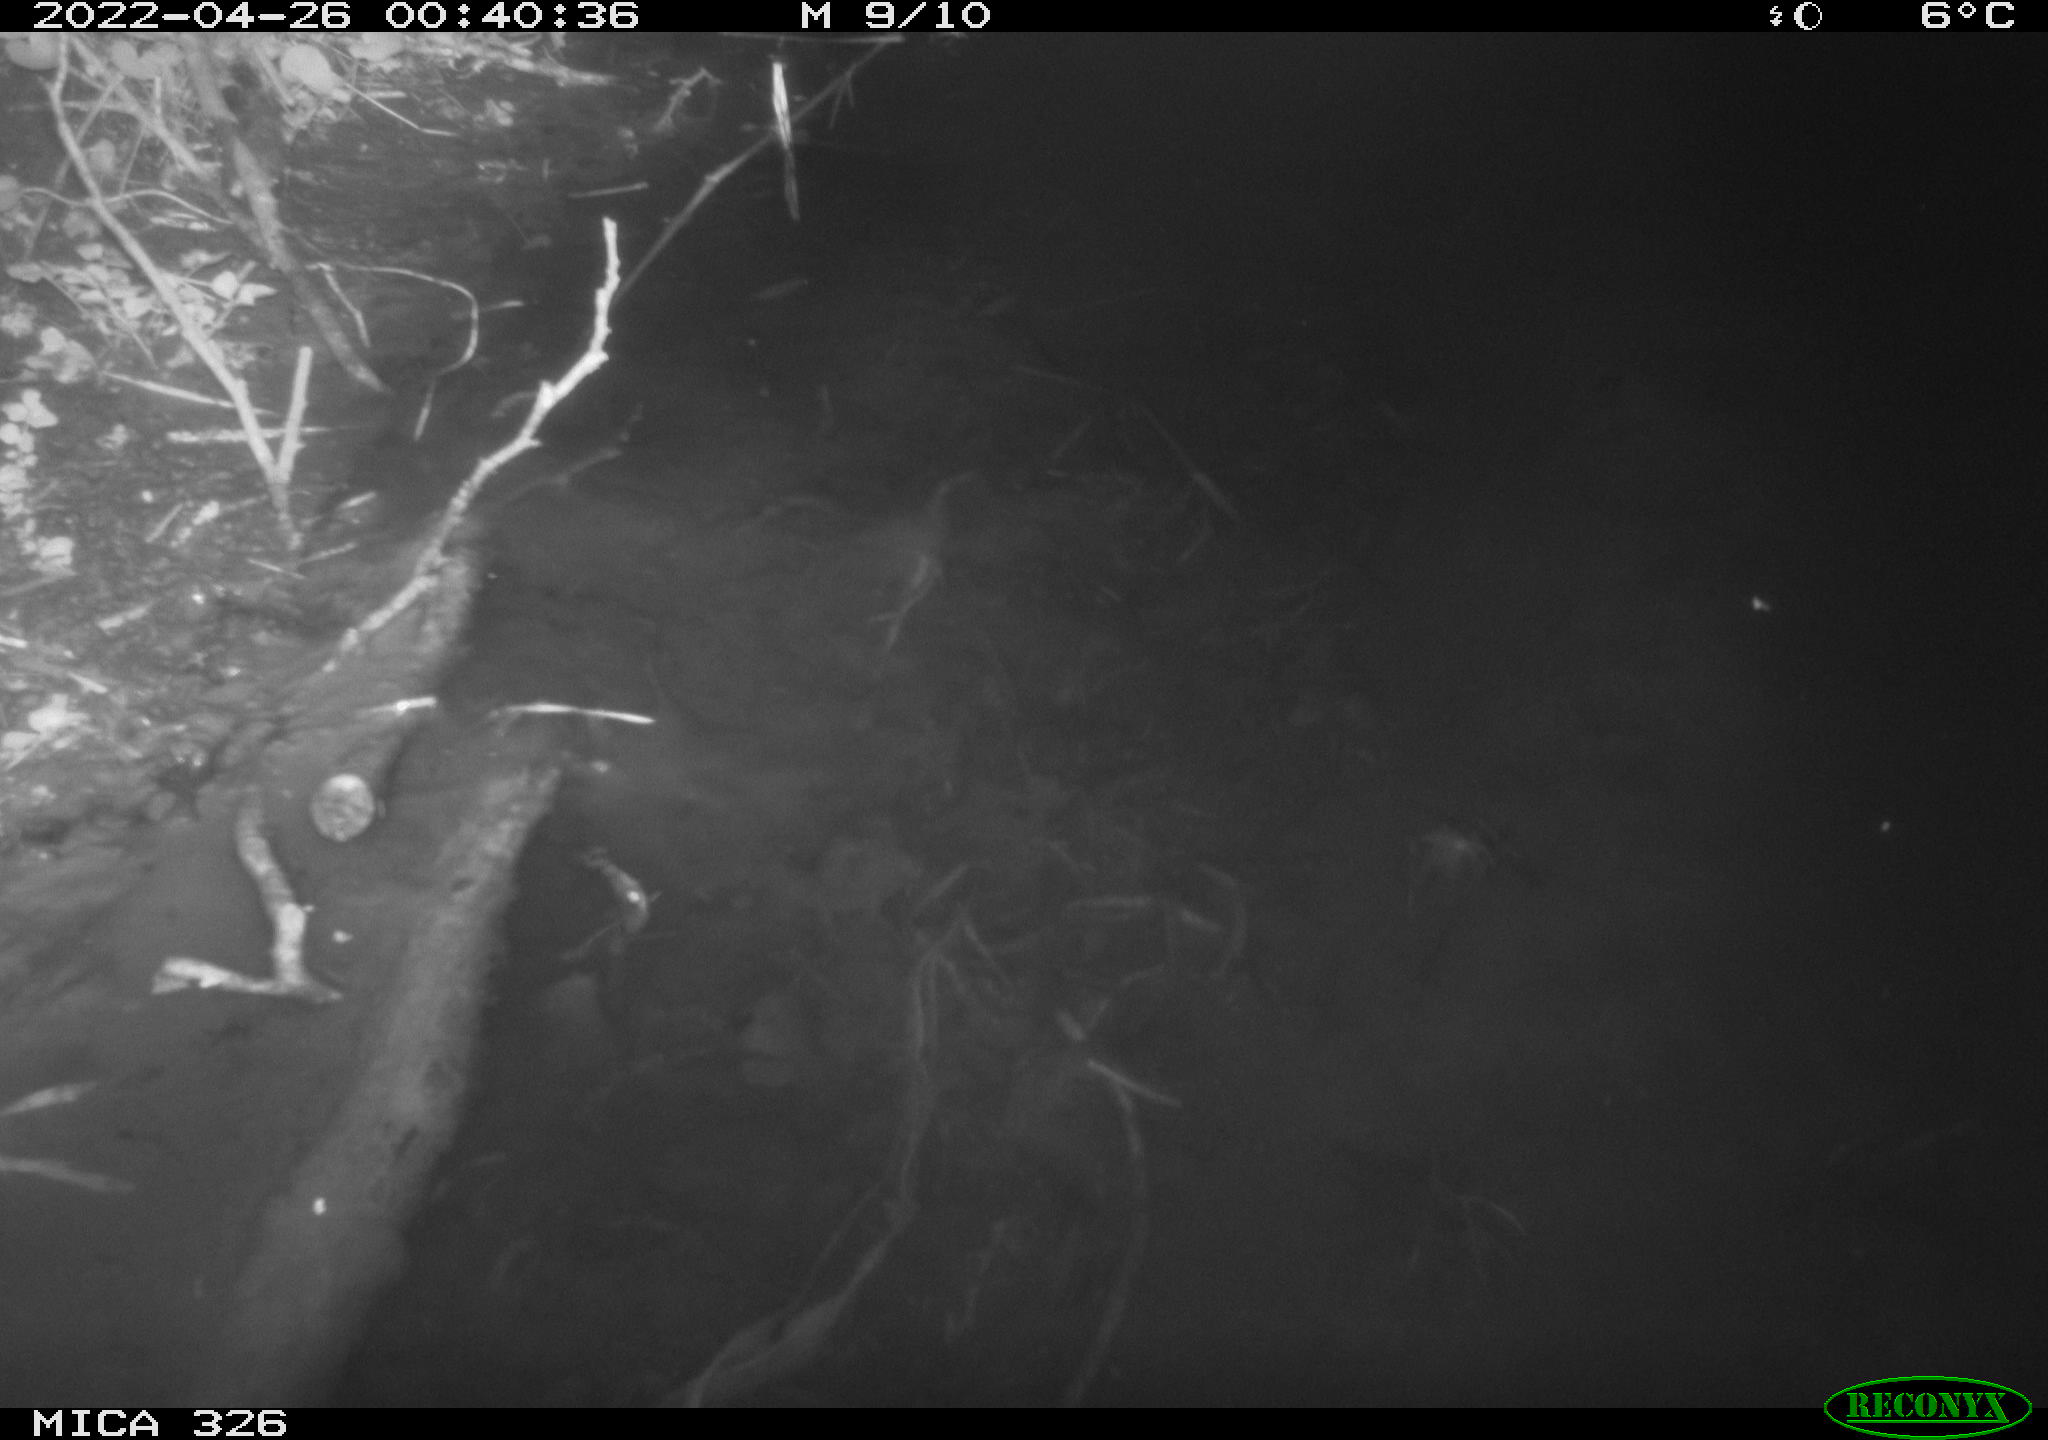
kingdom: Animalia
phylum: Chordata
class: Mammalia
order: Rodentia
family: Muridae
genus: Rattus
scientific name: Rattus norvegicus
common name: Brown rat
